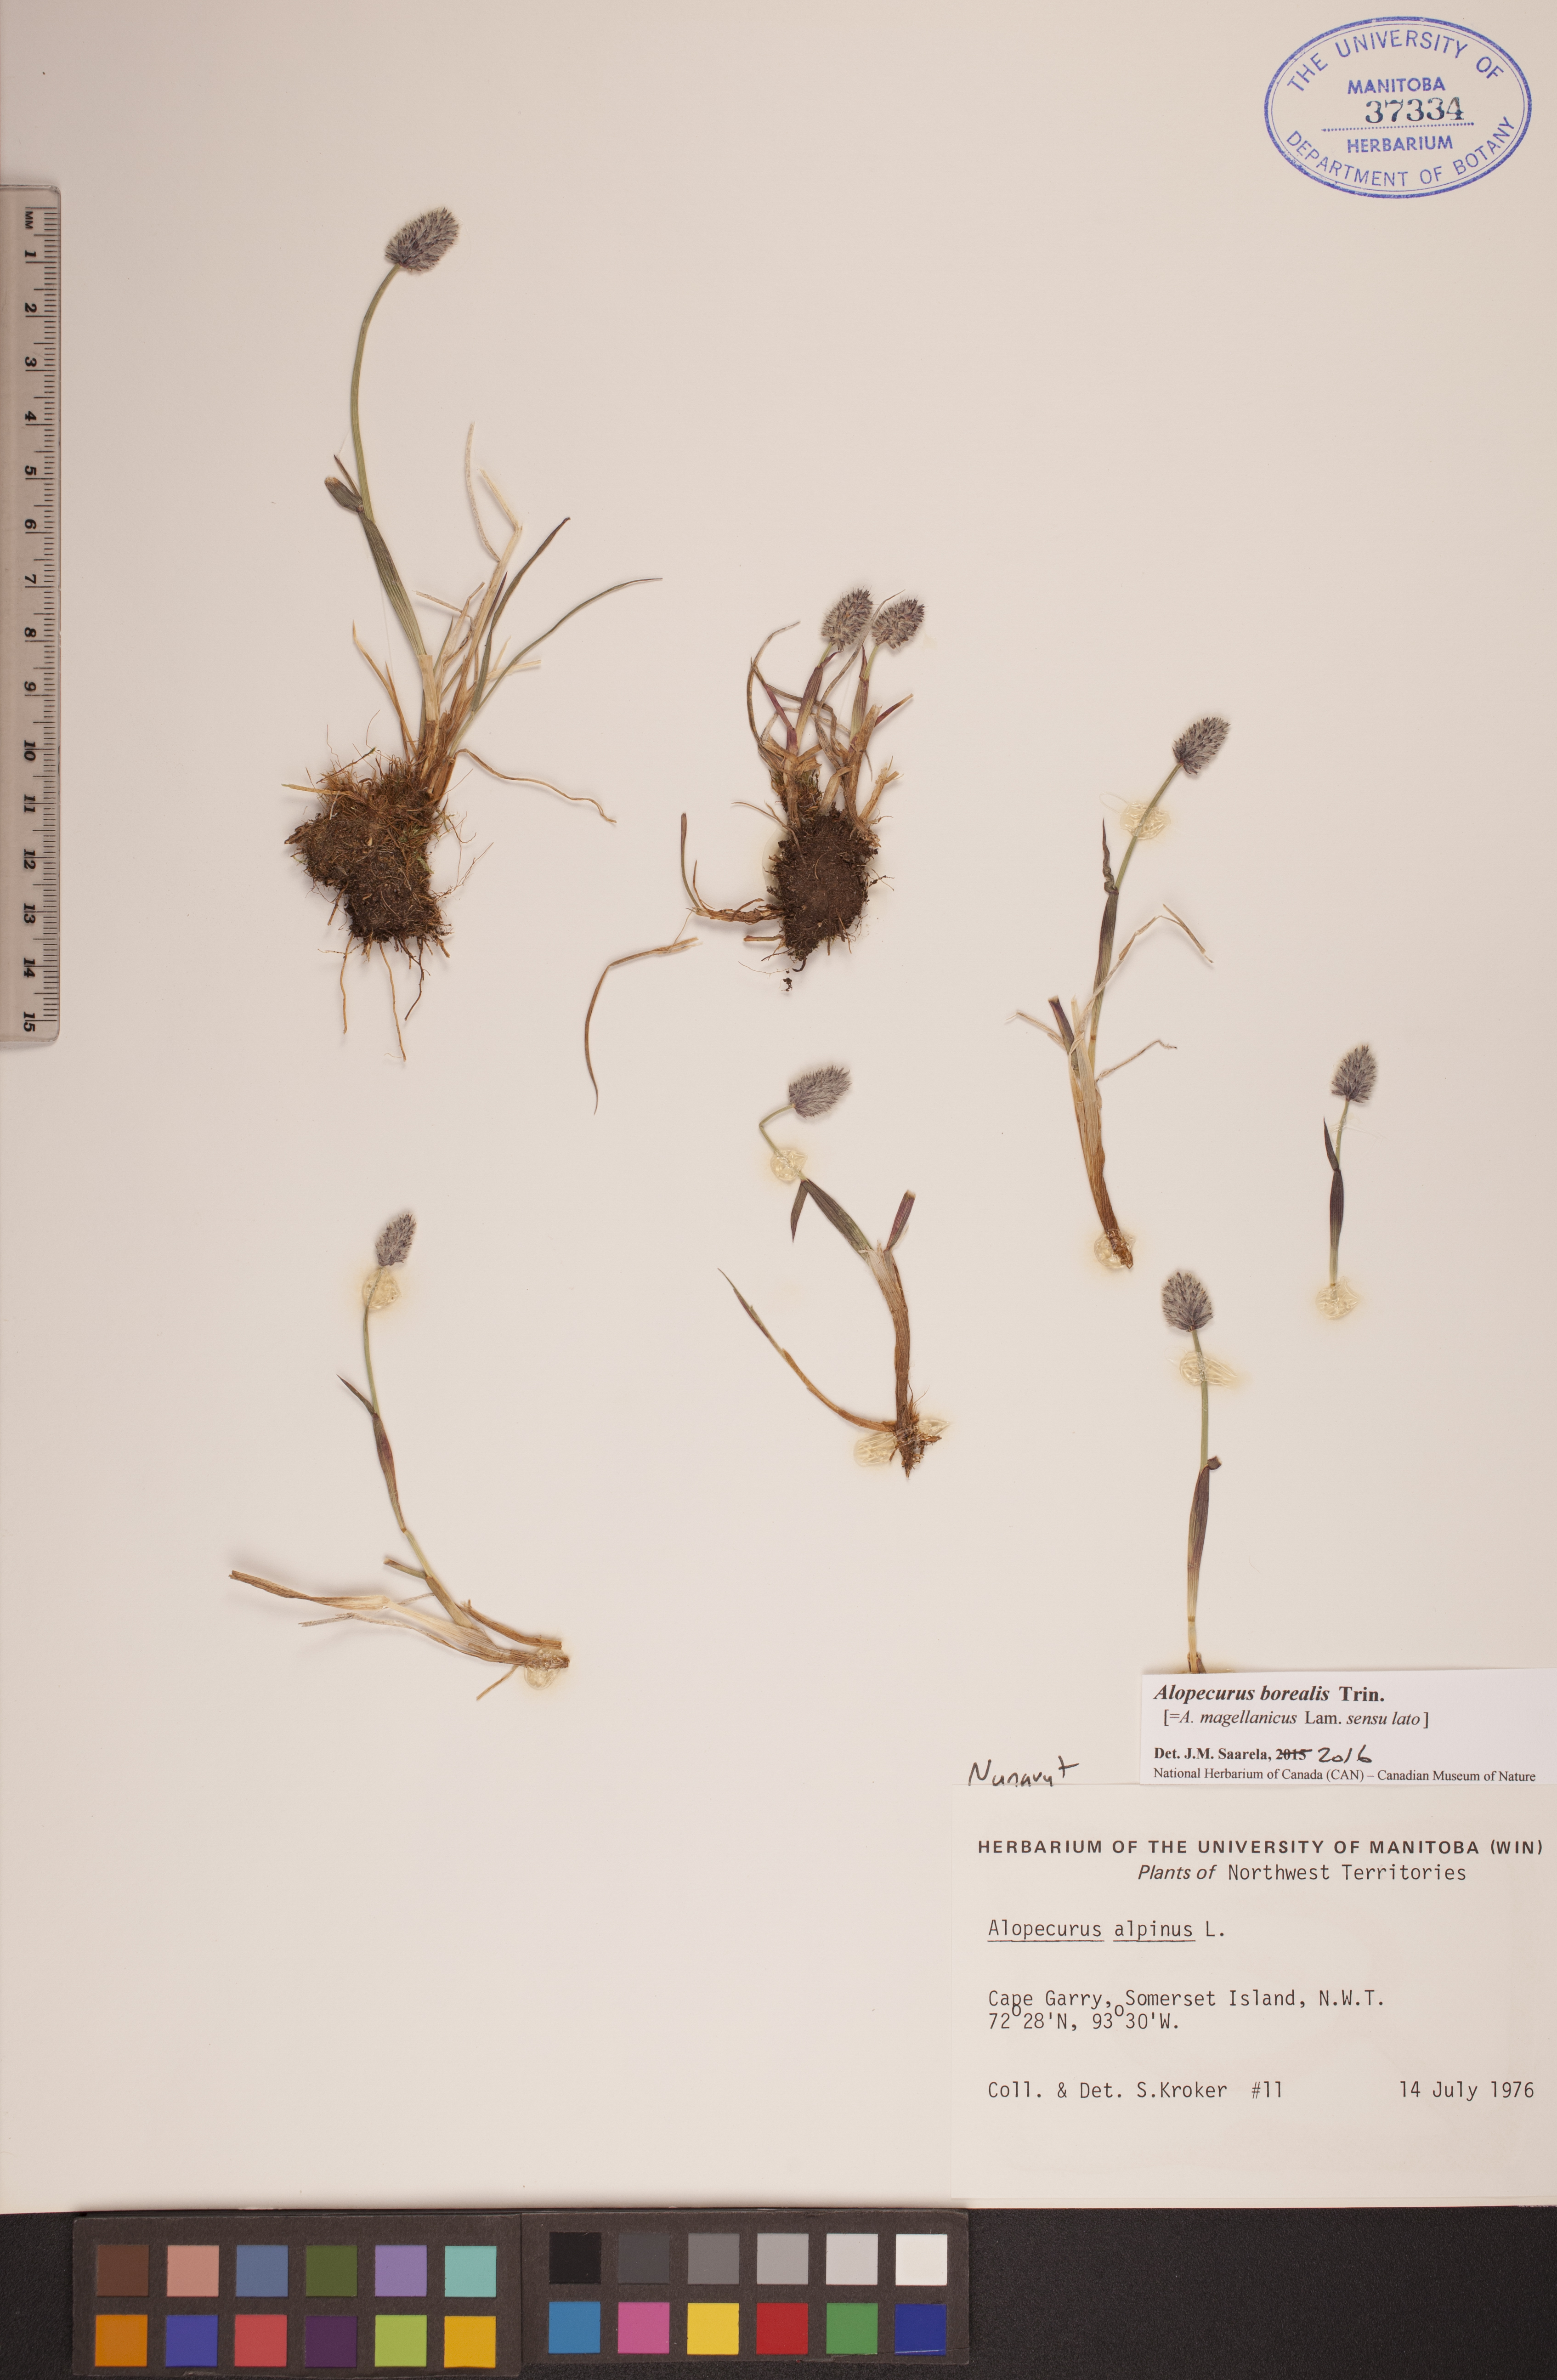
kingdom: Plantae
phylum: Tracheophyta
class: Liliopsida
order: Poales
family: Poaceae
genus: Alopecurus
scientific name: Alopecurus magellanicus
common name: Alpine foxtail
